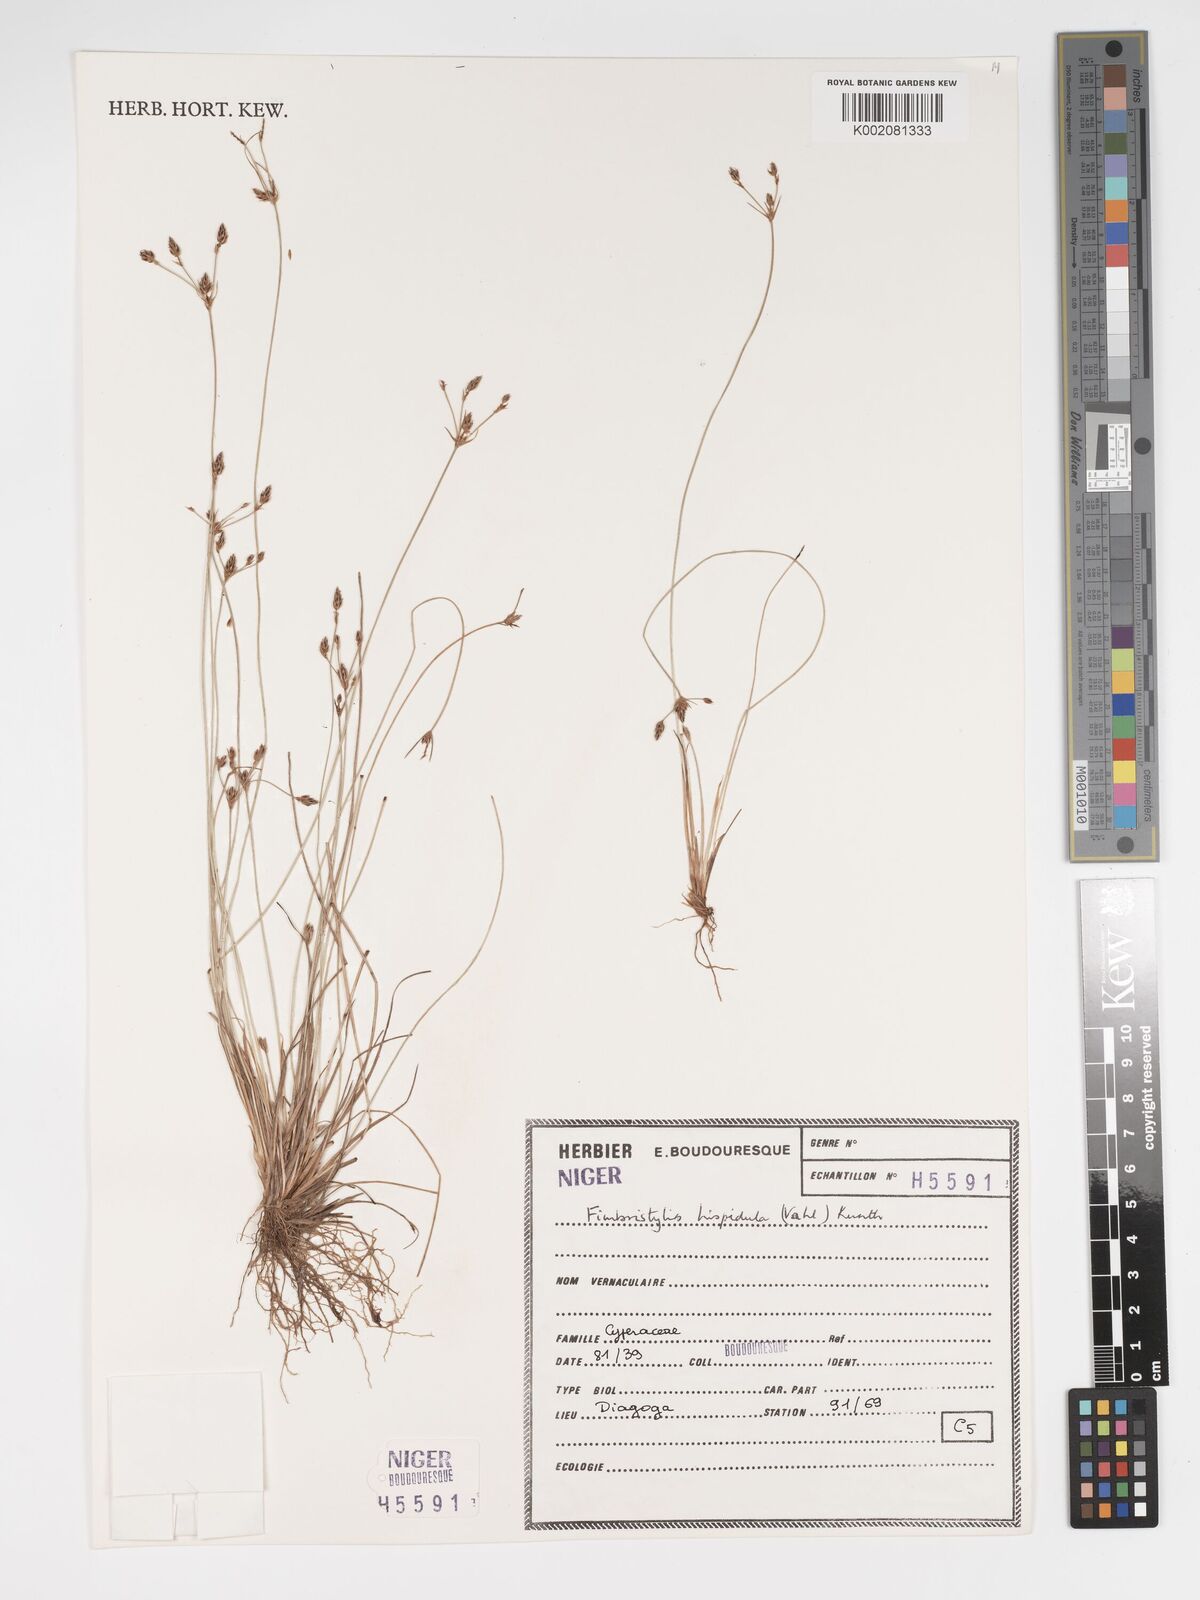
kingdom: Plantae
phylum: Tracheophyta
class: Liliopsida
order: Poales
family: Cyperaceae
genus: Bulbostylis
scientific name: Bulbostylis hispidula
